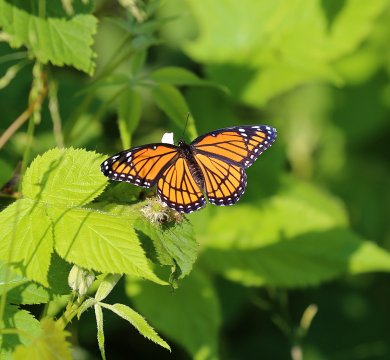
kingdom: Animalia
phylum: Arthropoda
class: Insecta
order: Lepidoptera
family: Nymphalidae
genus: Limenitis
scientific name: Limenitis archippus
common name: Viceroy
